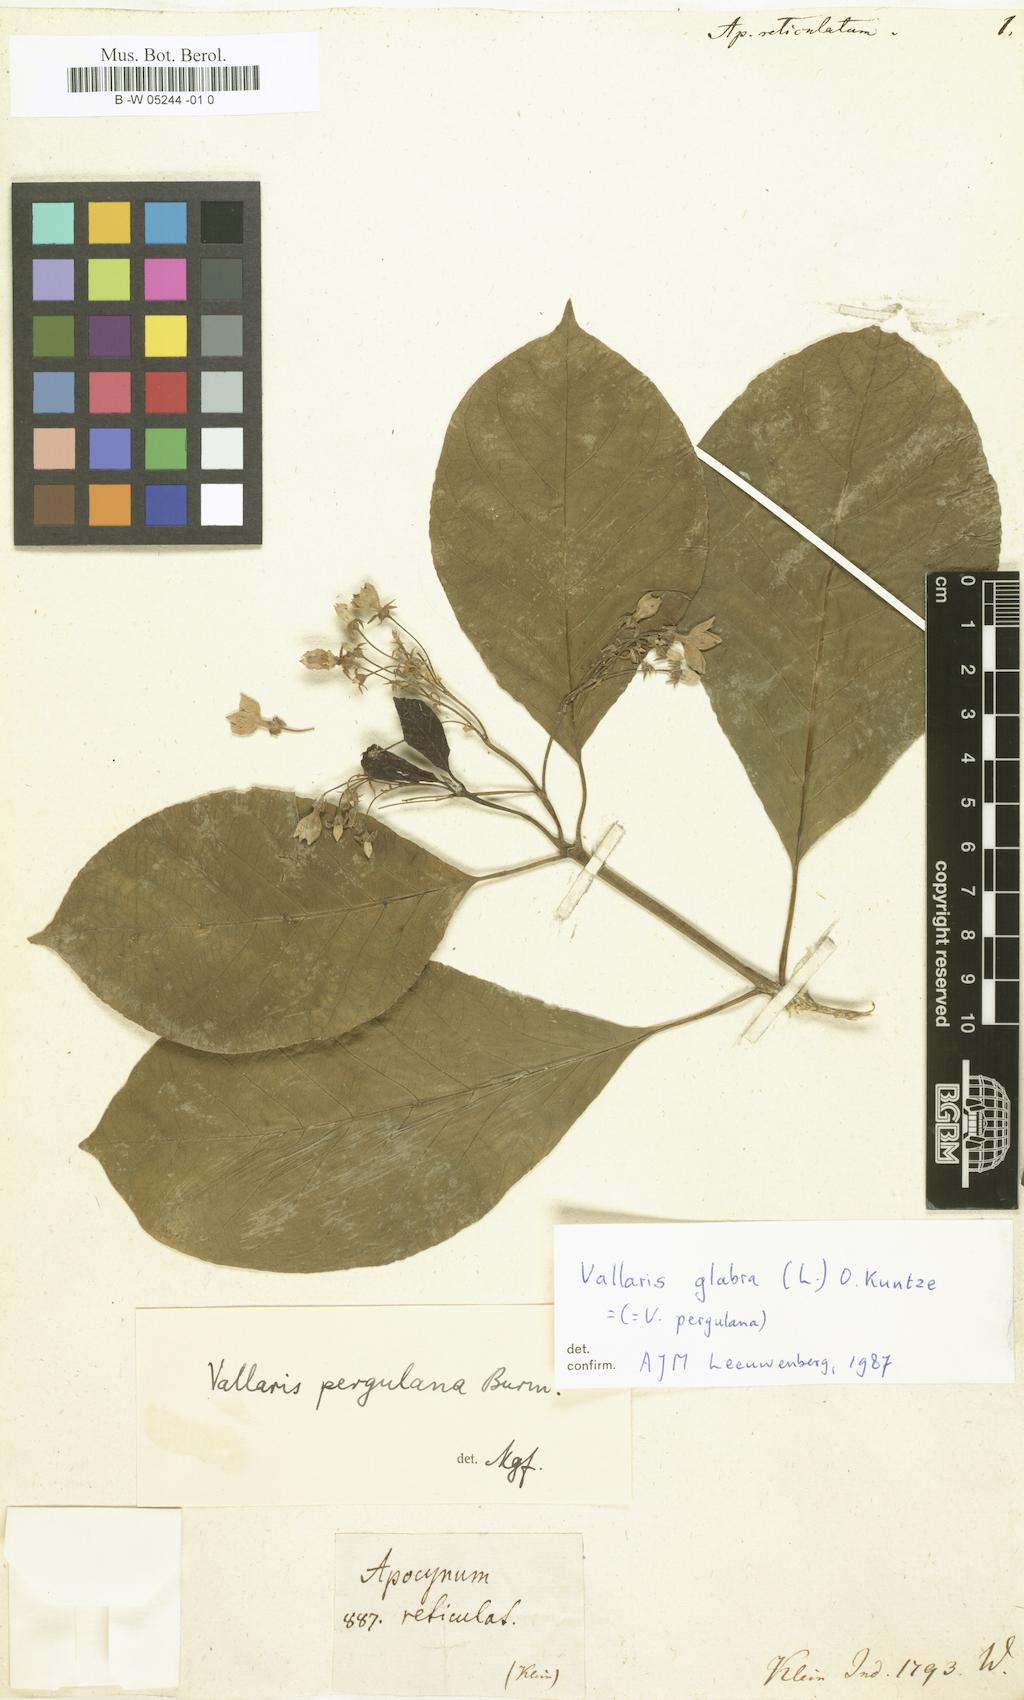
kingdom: Plantae
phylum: Tracheophyta
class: Magnoliopsida
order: Gentianales
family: Apocynaceae
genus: Parsonsia
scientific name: Parsonsia alboflavescens
